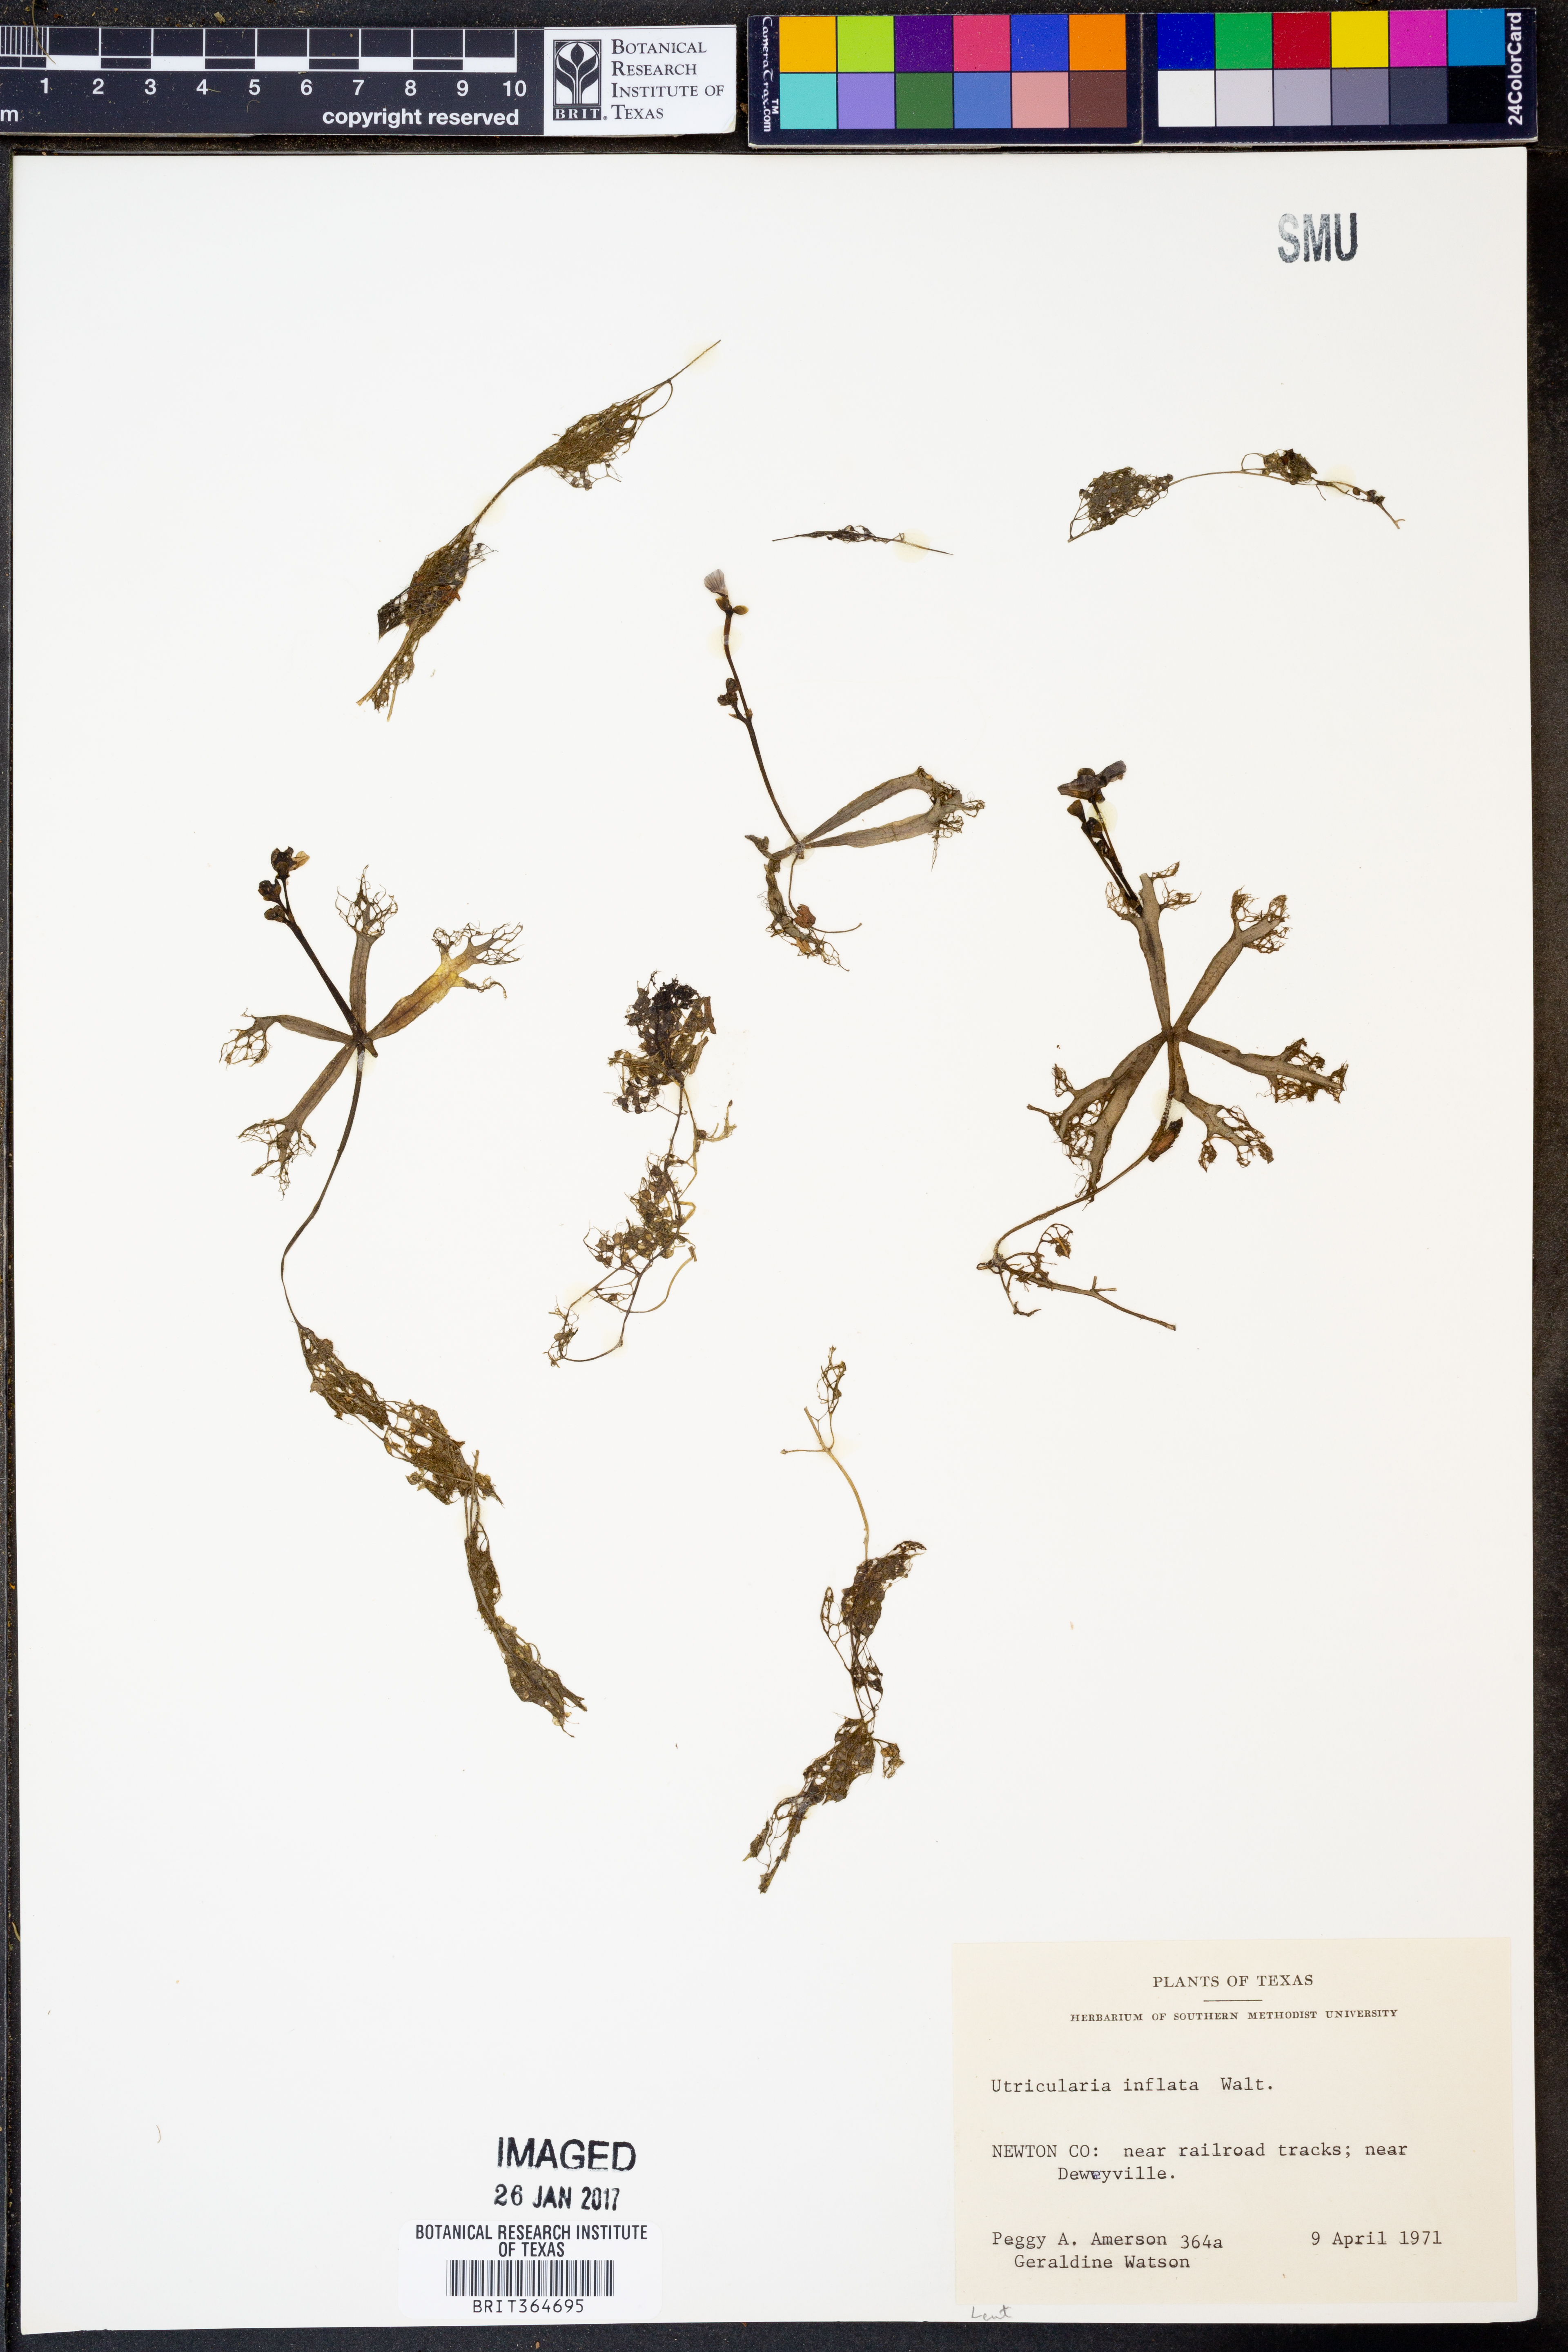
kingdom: Plantae
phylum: Tracheophyta
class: Magnoliopsida
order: Lamiales
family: Lentibulariaceae
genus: Utricularia
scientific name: Utricularia inflata
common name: Floating bladderwort
